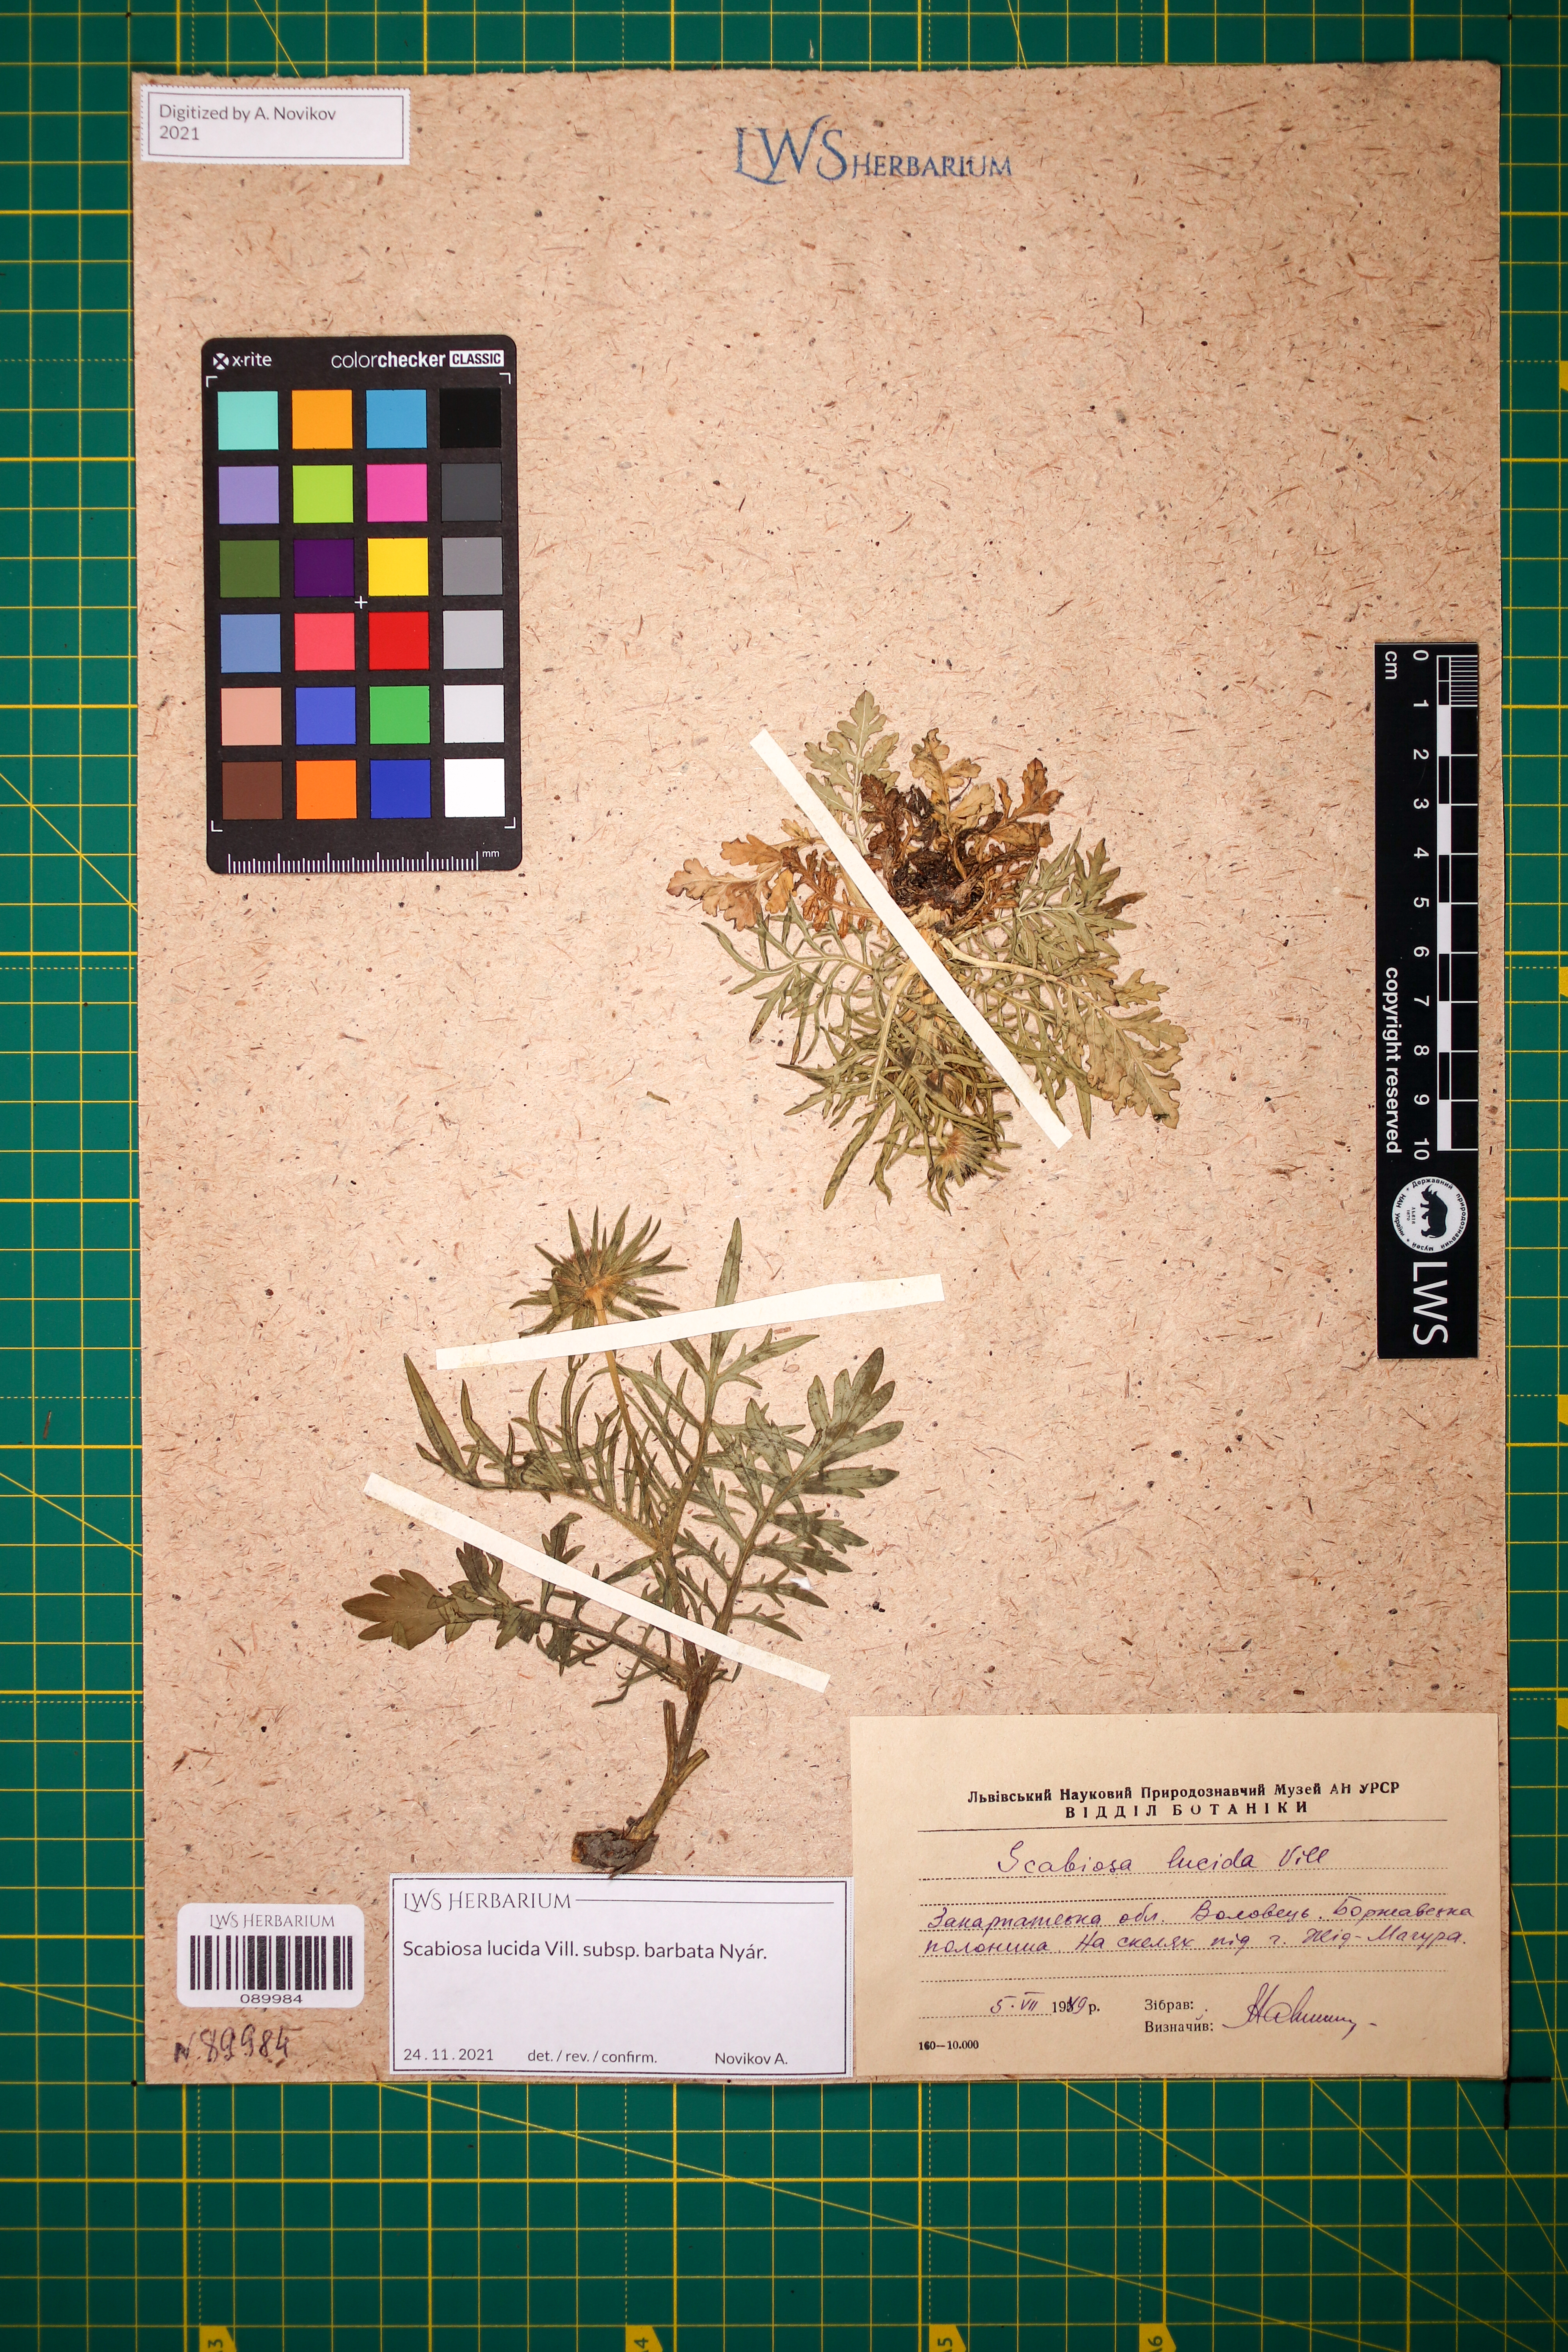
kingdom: Plantae
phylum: Tracheophyta
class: Magnoliopsida
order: Dipsacales
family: Caprifoliaceae
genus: Scabiosa
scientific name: Scabiosa lucida
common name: Shining scabious
